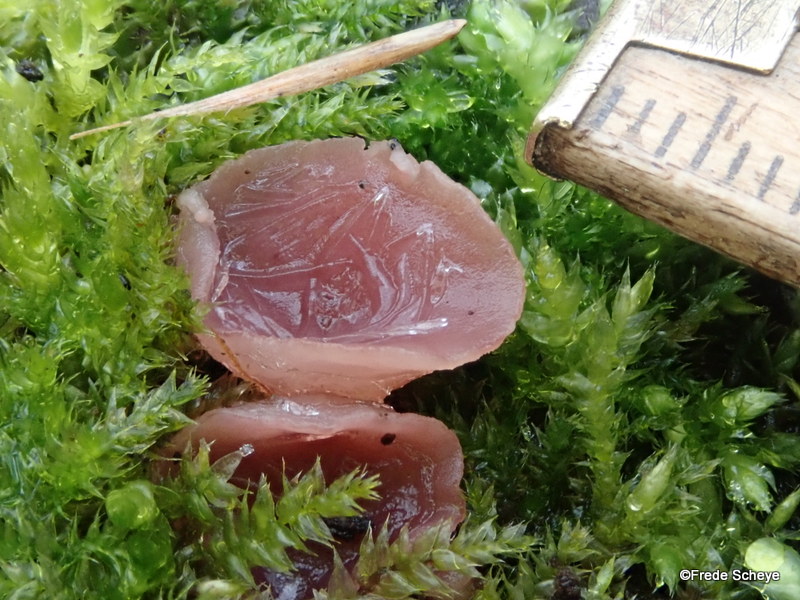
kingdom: Fungi
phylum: Ascomycota
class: Leotiomycetes
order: Helotiales
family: Gelatinodiscaceae
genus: Ascocoryne
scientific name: Ascocoryne cylichnium
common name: stor sejskive
